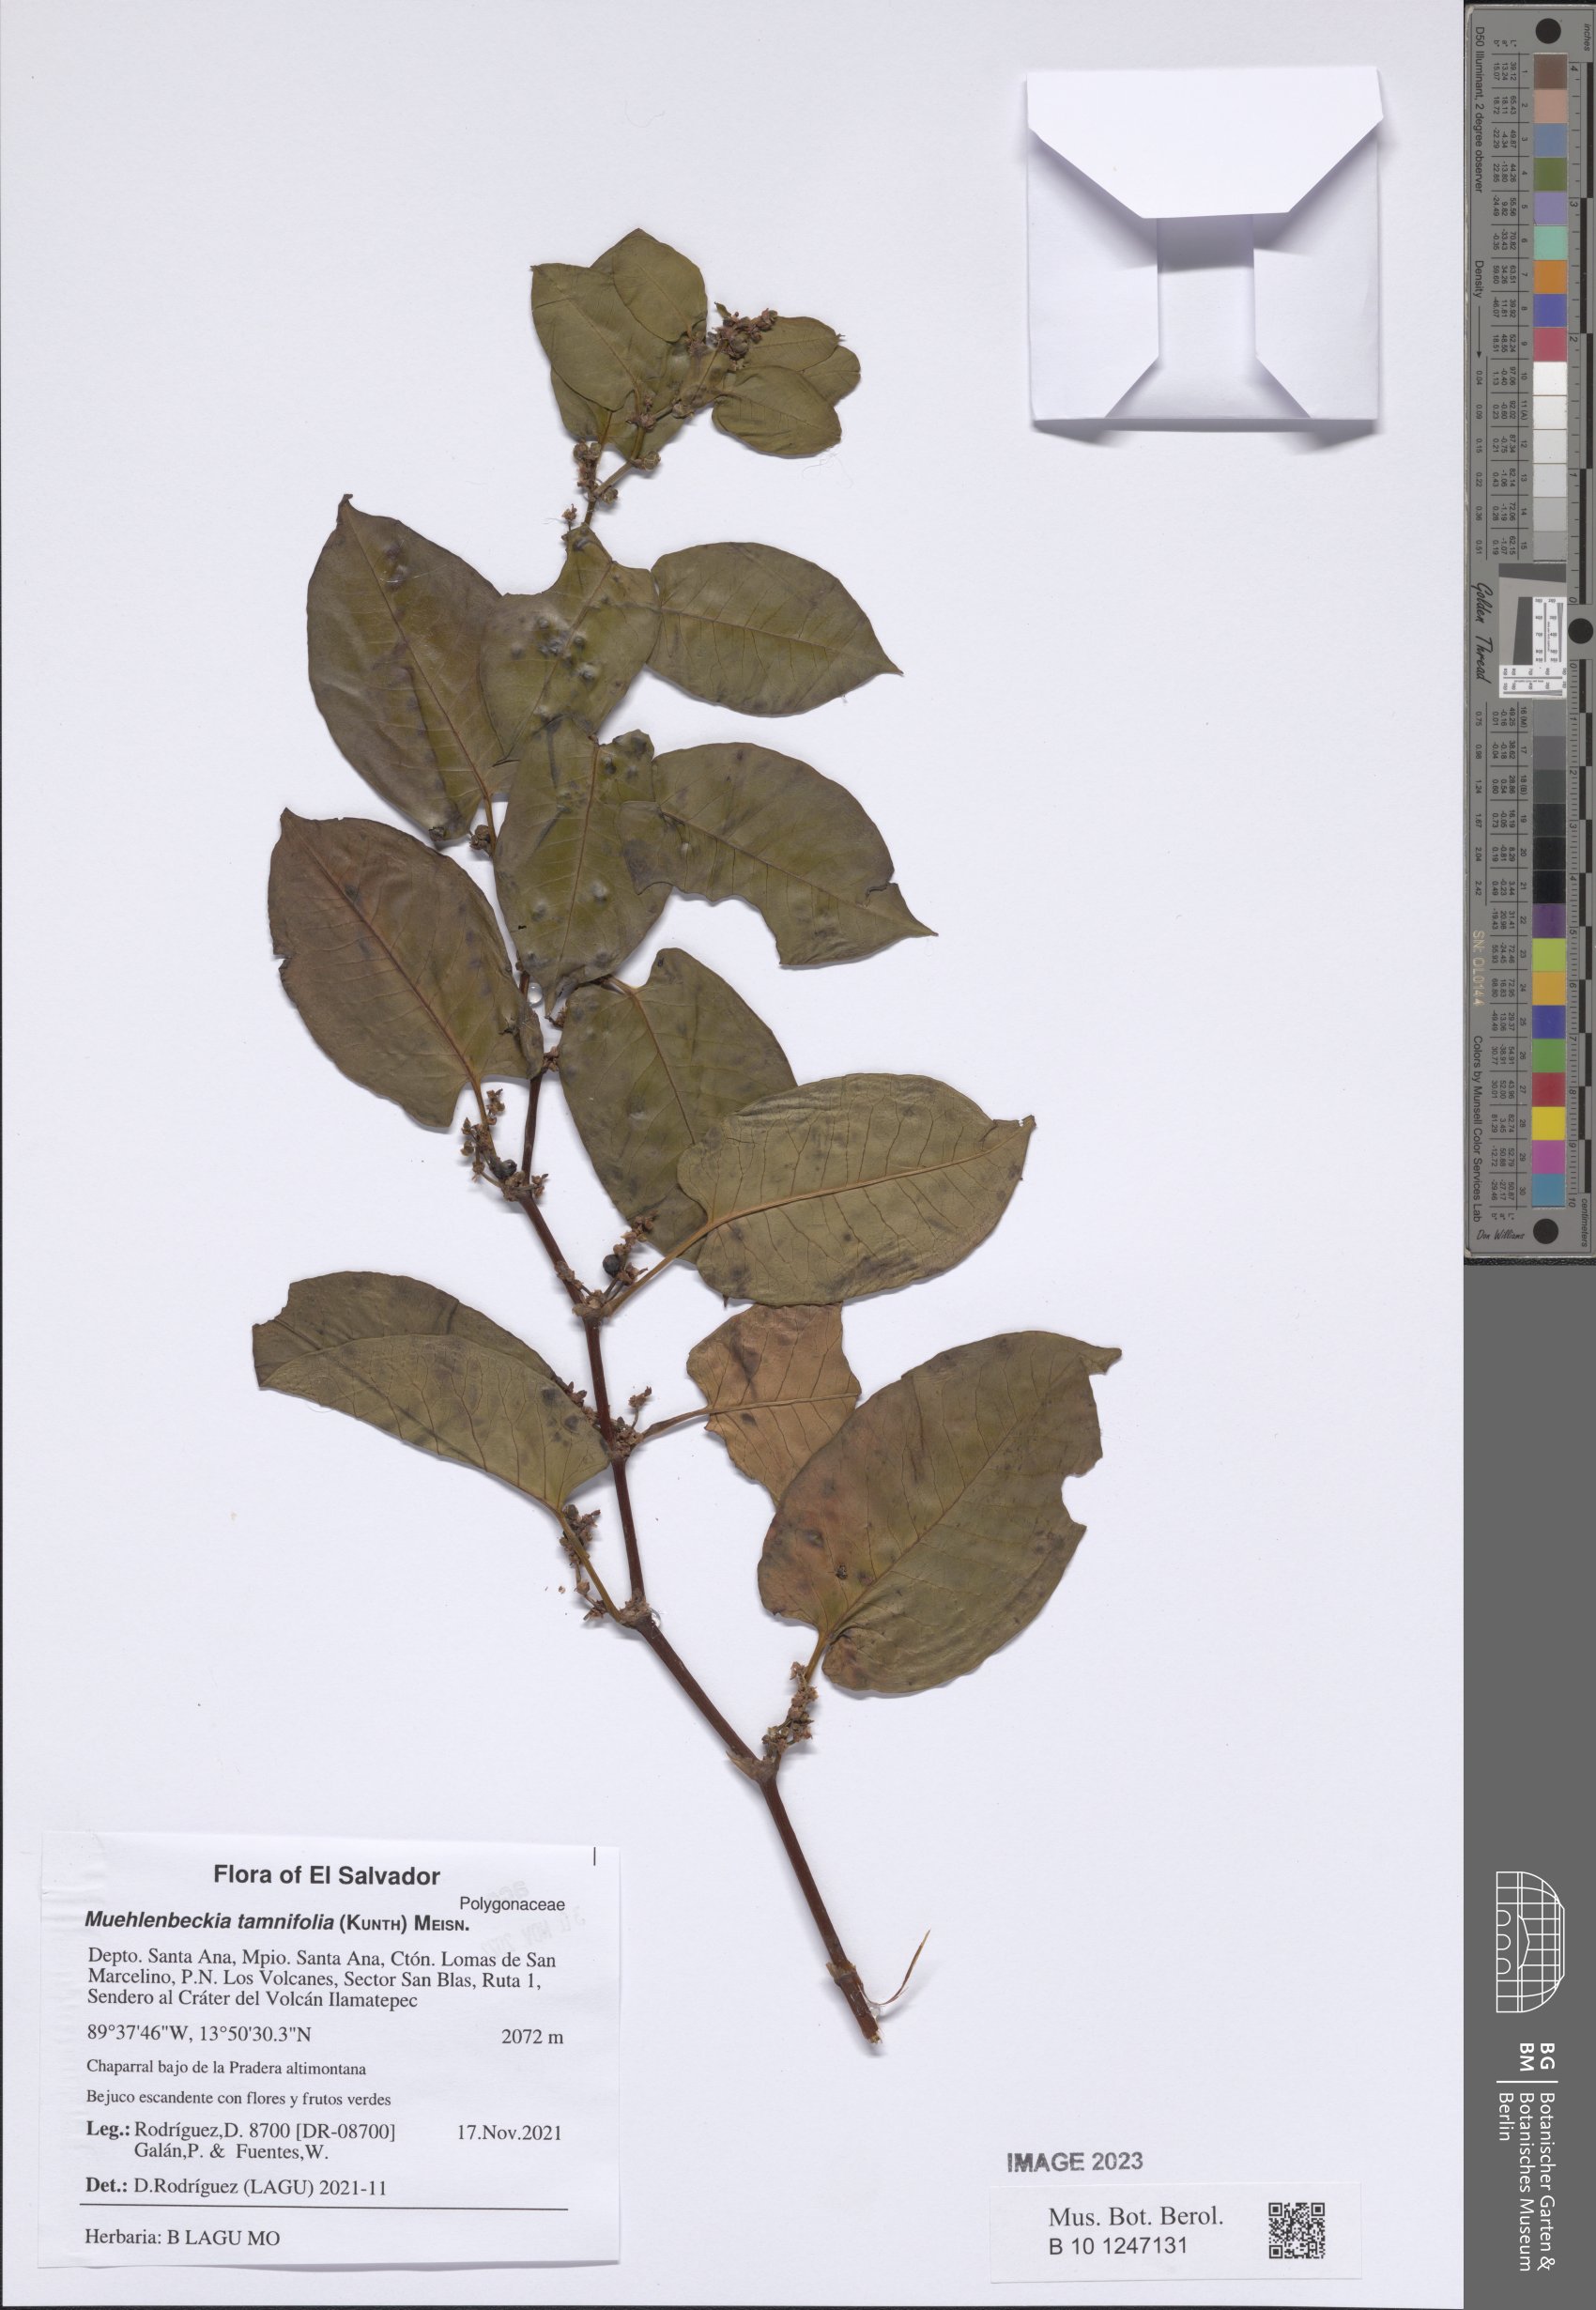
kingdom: Plantae
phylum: Tracheophyta
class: Magnoliopsida
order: Caryophyllales
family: Polygonaceae
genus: Muehlenbeckia
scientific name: Muehlenbeckia tamnifolia
